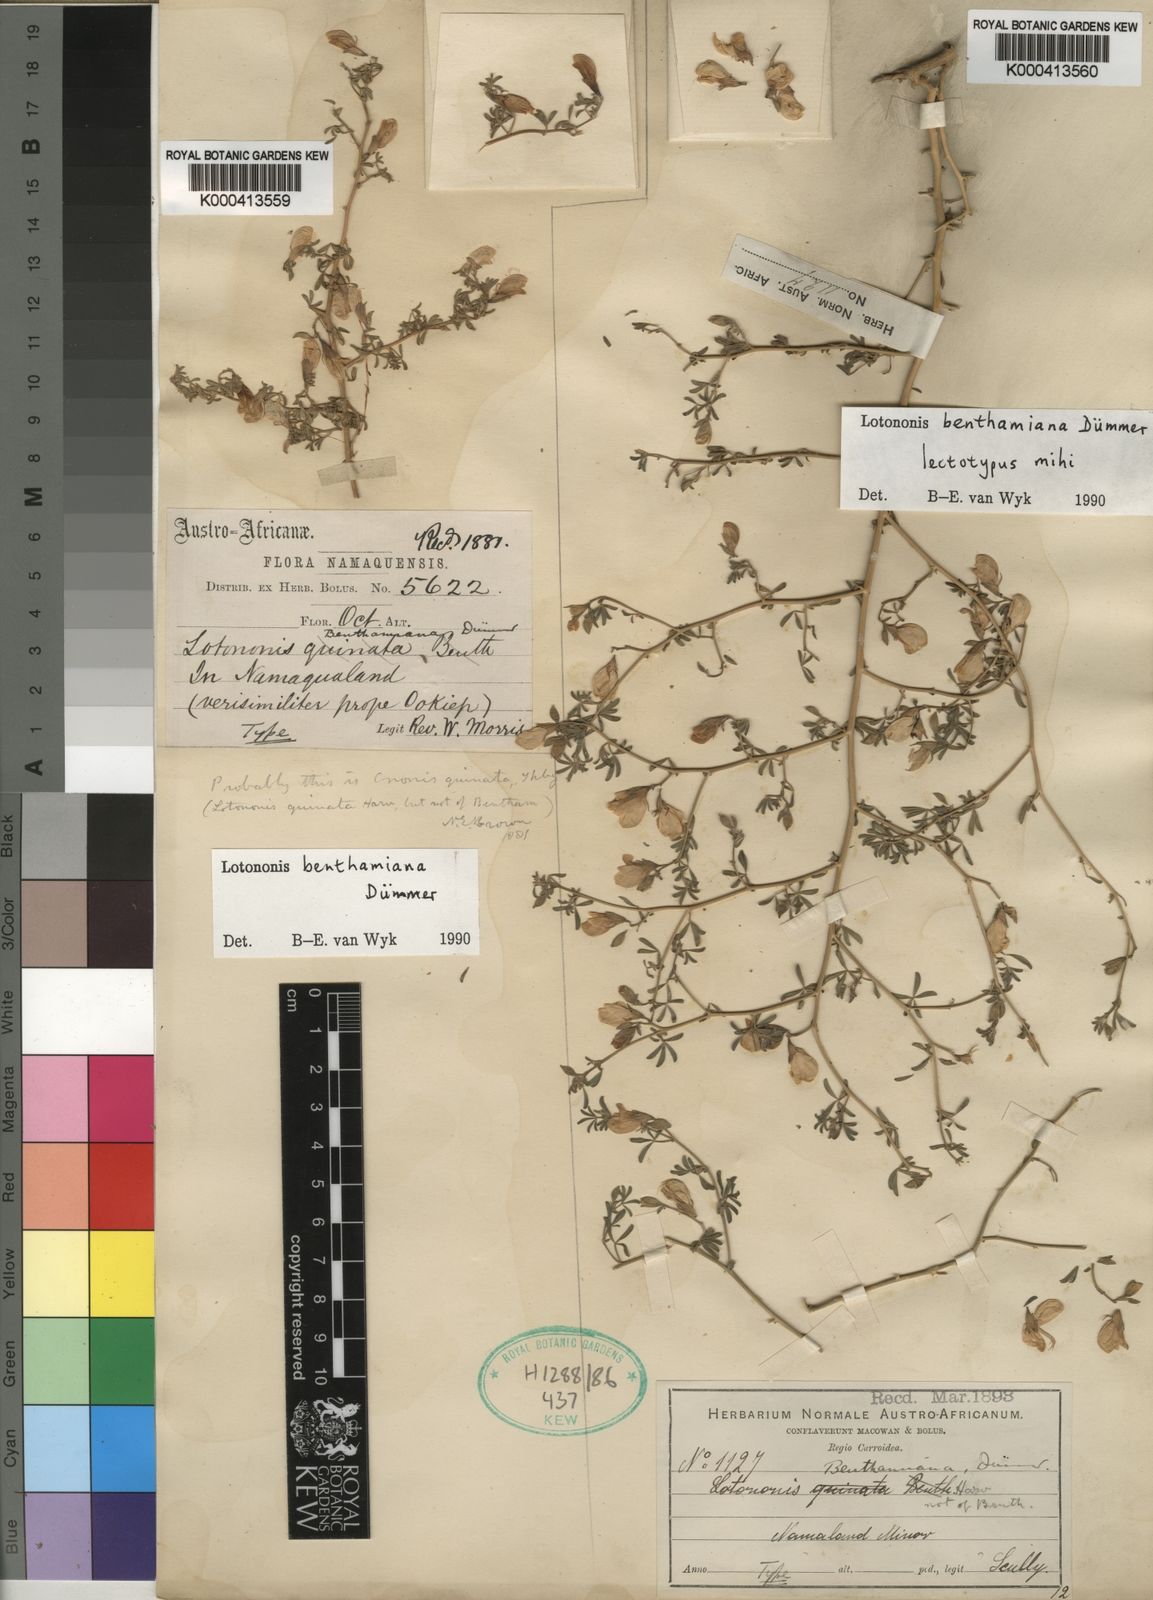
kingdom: Plantae
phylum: Tracheophyta
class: Magnoliopsida
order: Fabales
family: Fabaceae
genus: Leobordea
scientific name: Leobordea benthamiana
